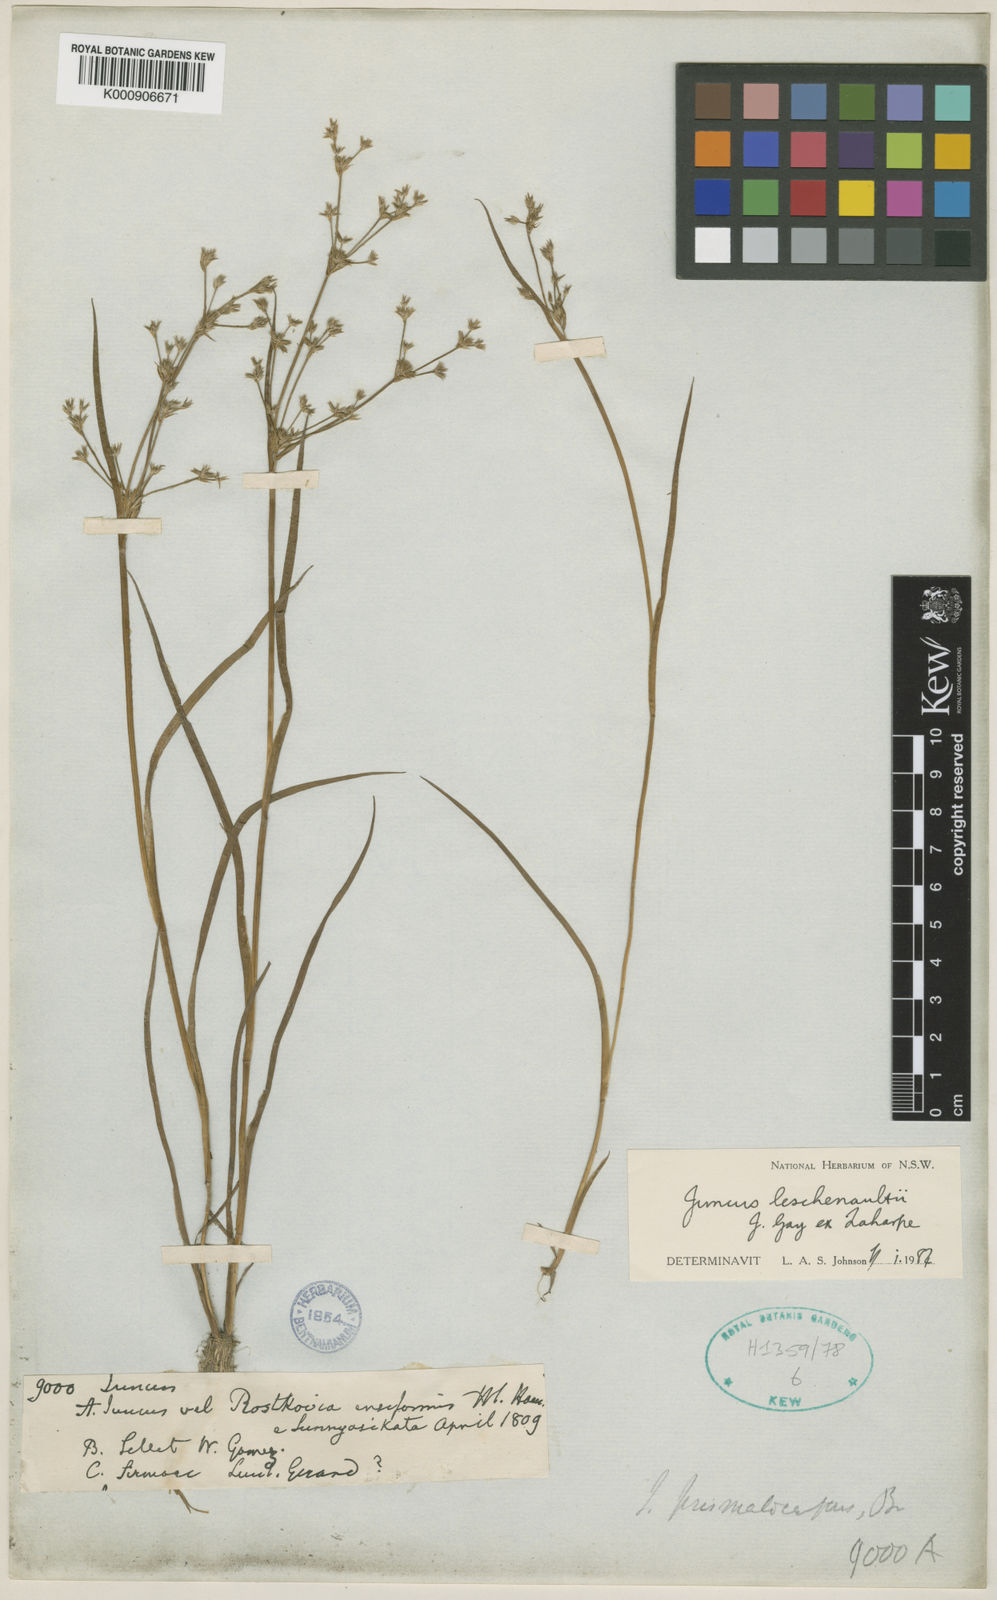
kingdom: Plantae
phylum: Tracheophyta
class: Liliopsida
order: Poales
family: Juncaceae
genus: Juncus
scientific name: Juncus prismatocarpus
